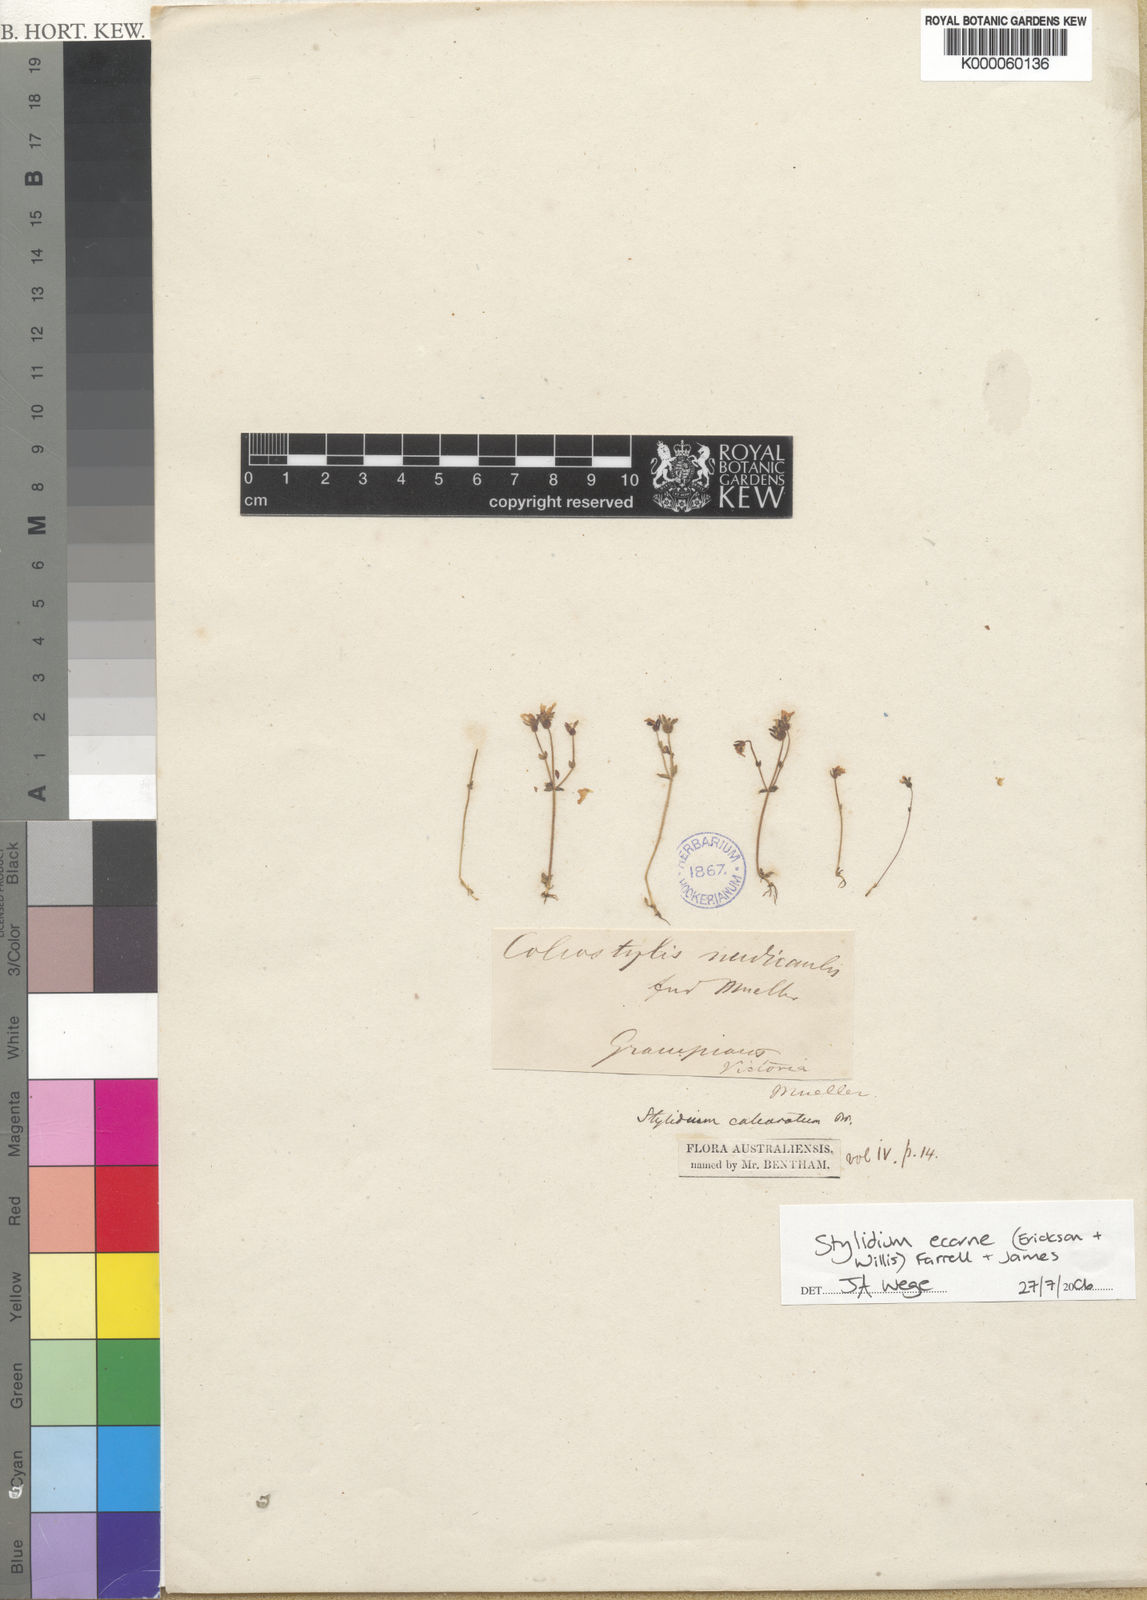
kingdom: Plantae
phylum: Tracheophyta
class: Magnoliopsida
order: Asterales
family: Stylidiaceae
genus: Stylidium
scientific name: Stylidium
